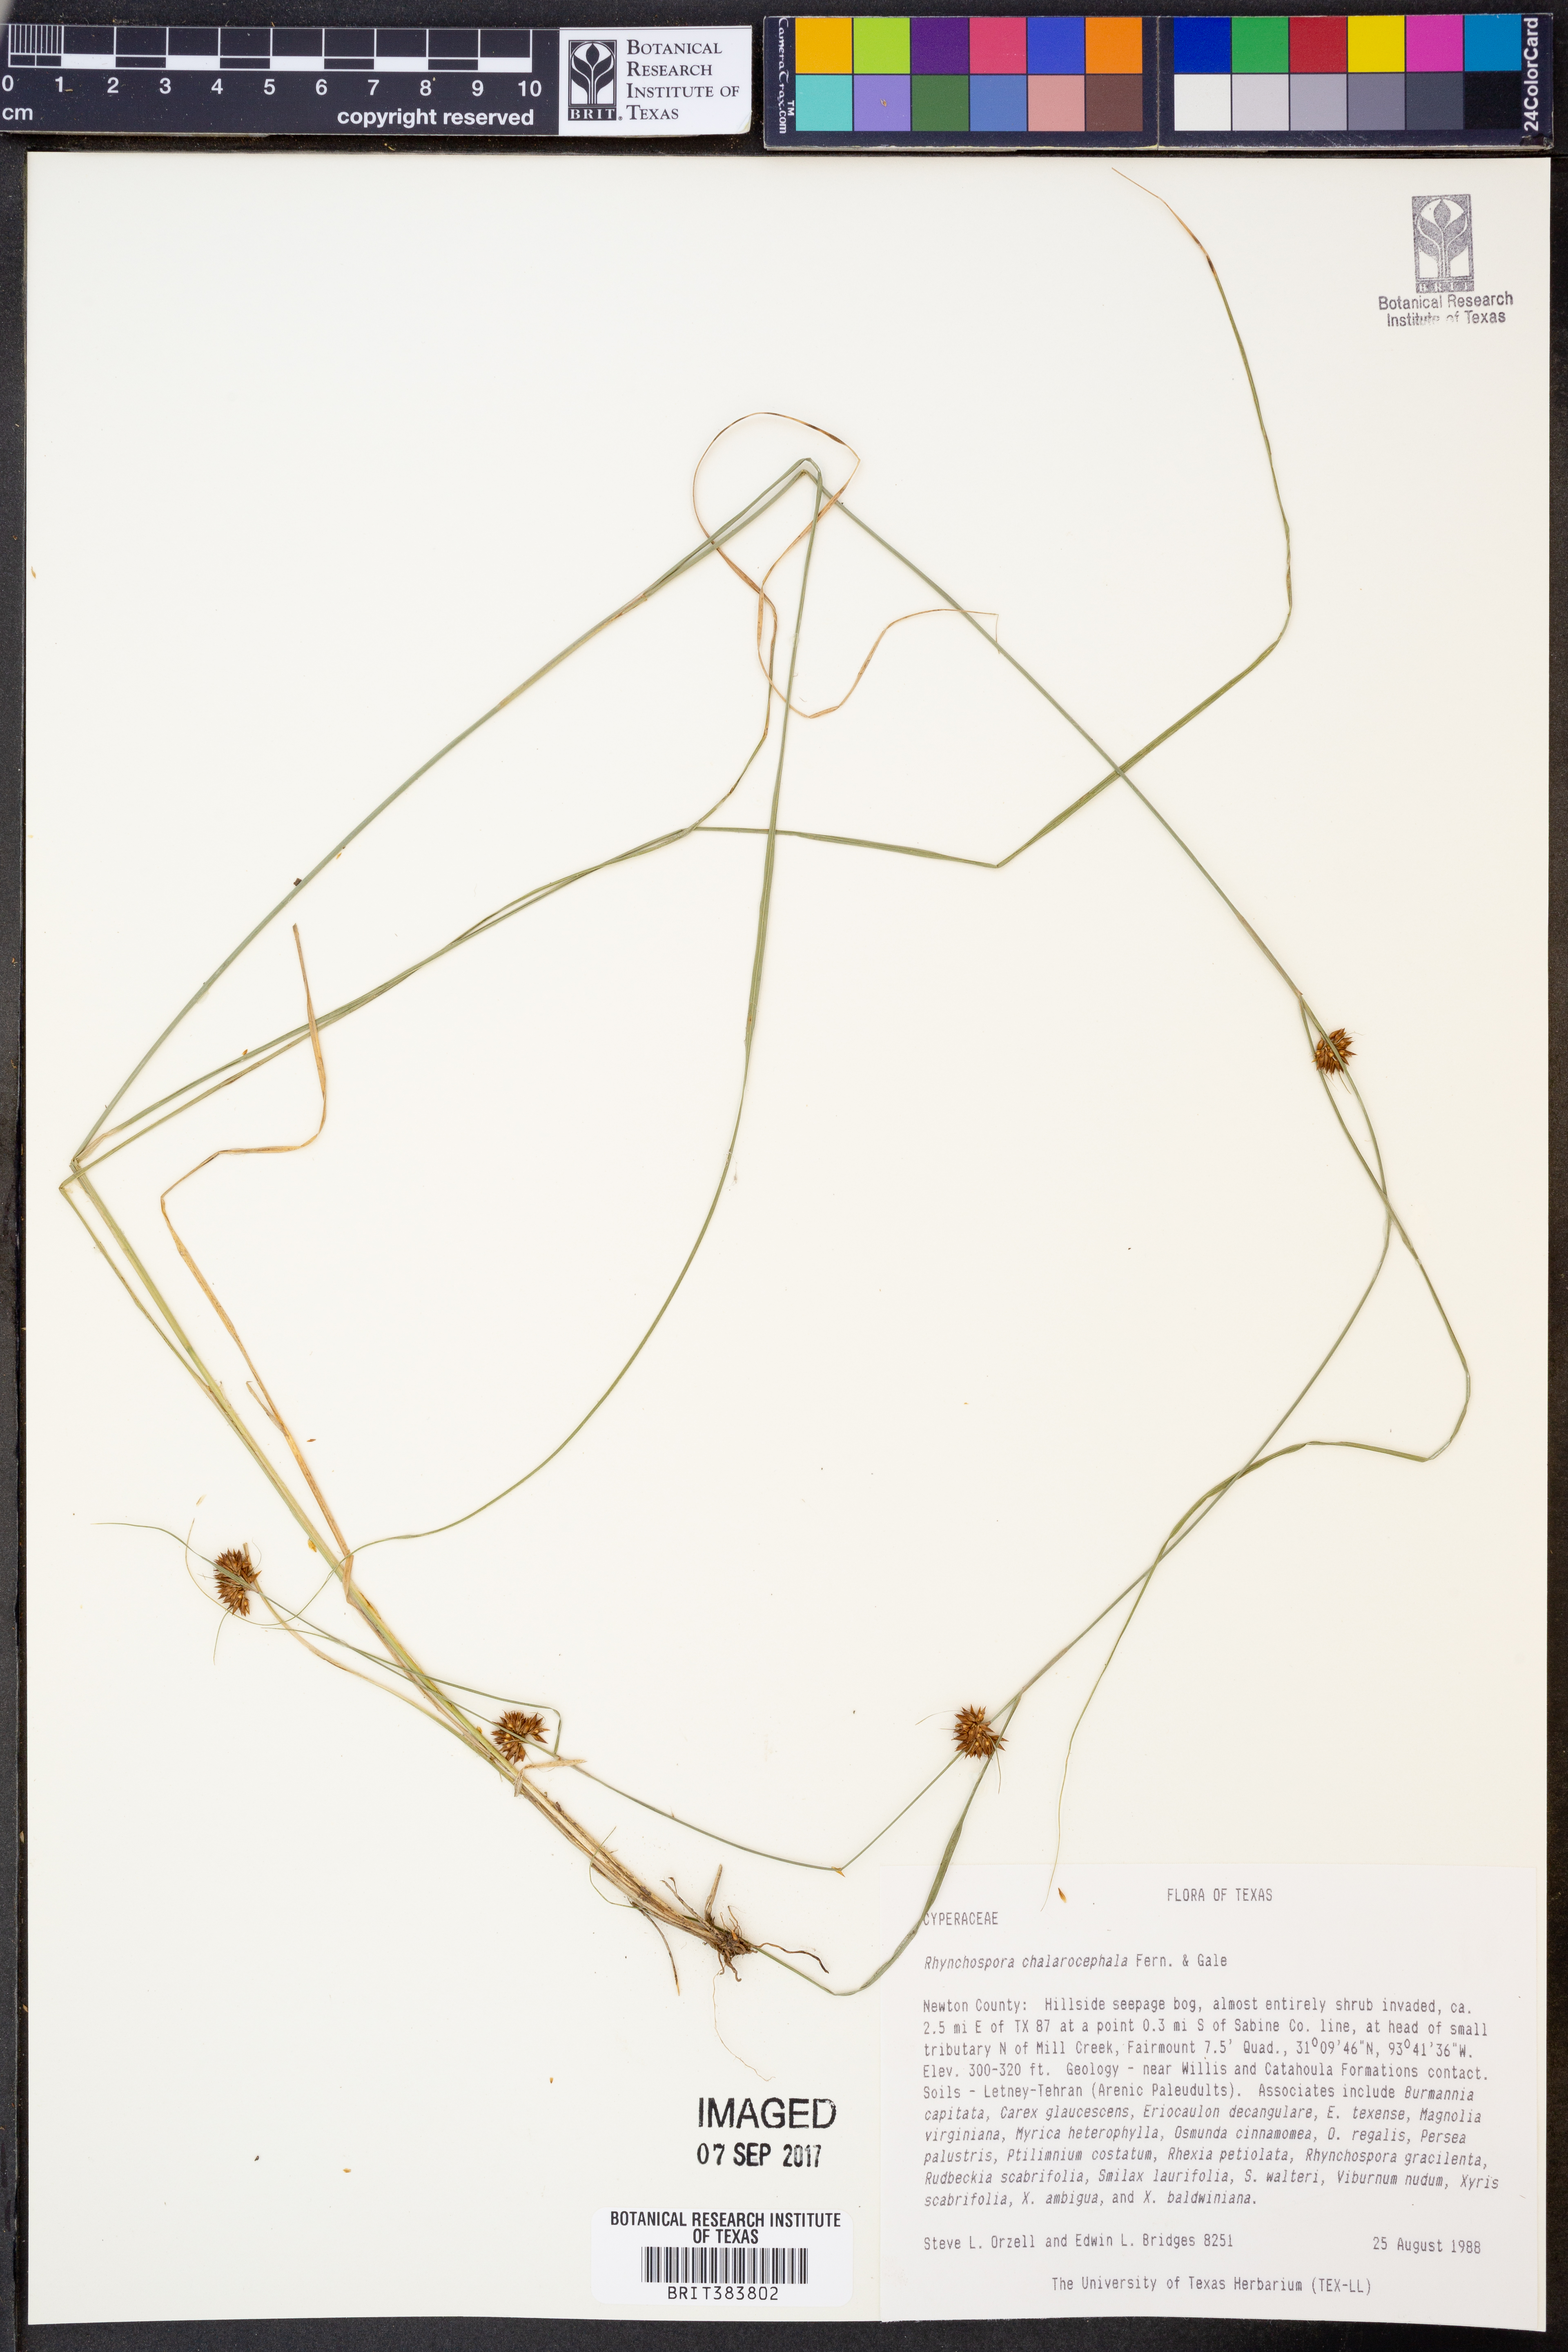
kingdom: Plantae
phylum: Tracheophyta
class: Liliopsida
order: Poales
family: Cyperaceae
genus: Rhynchospora
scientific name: Rhynchospora chalarocephala
